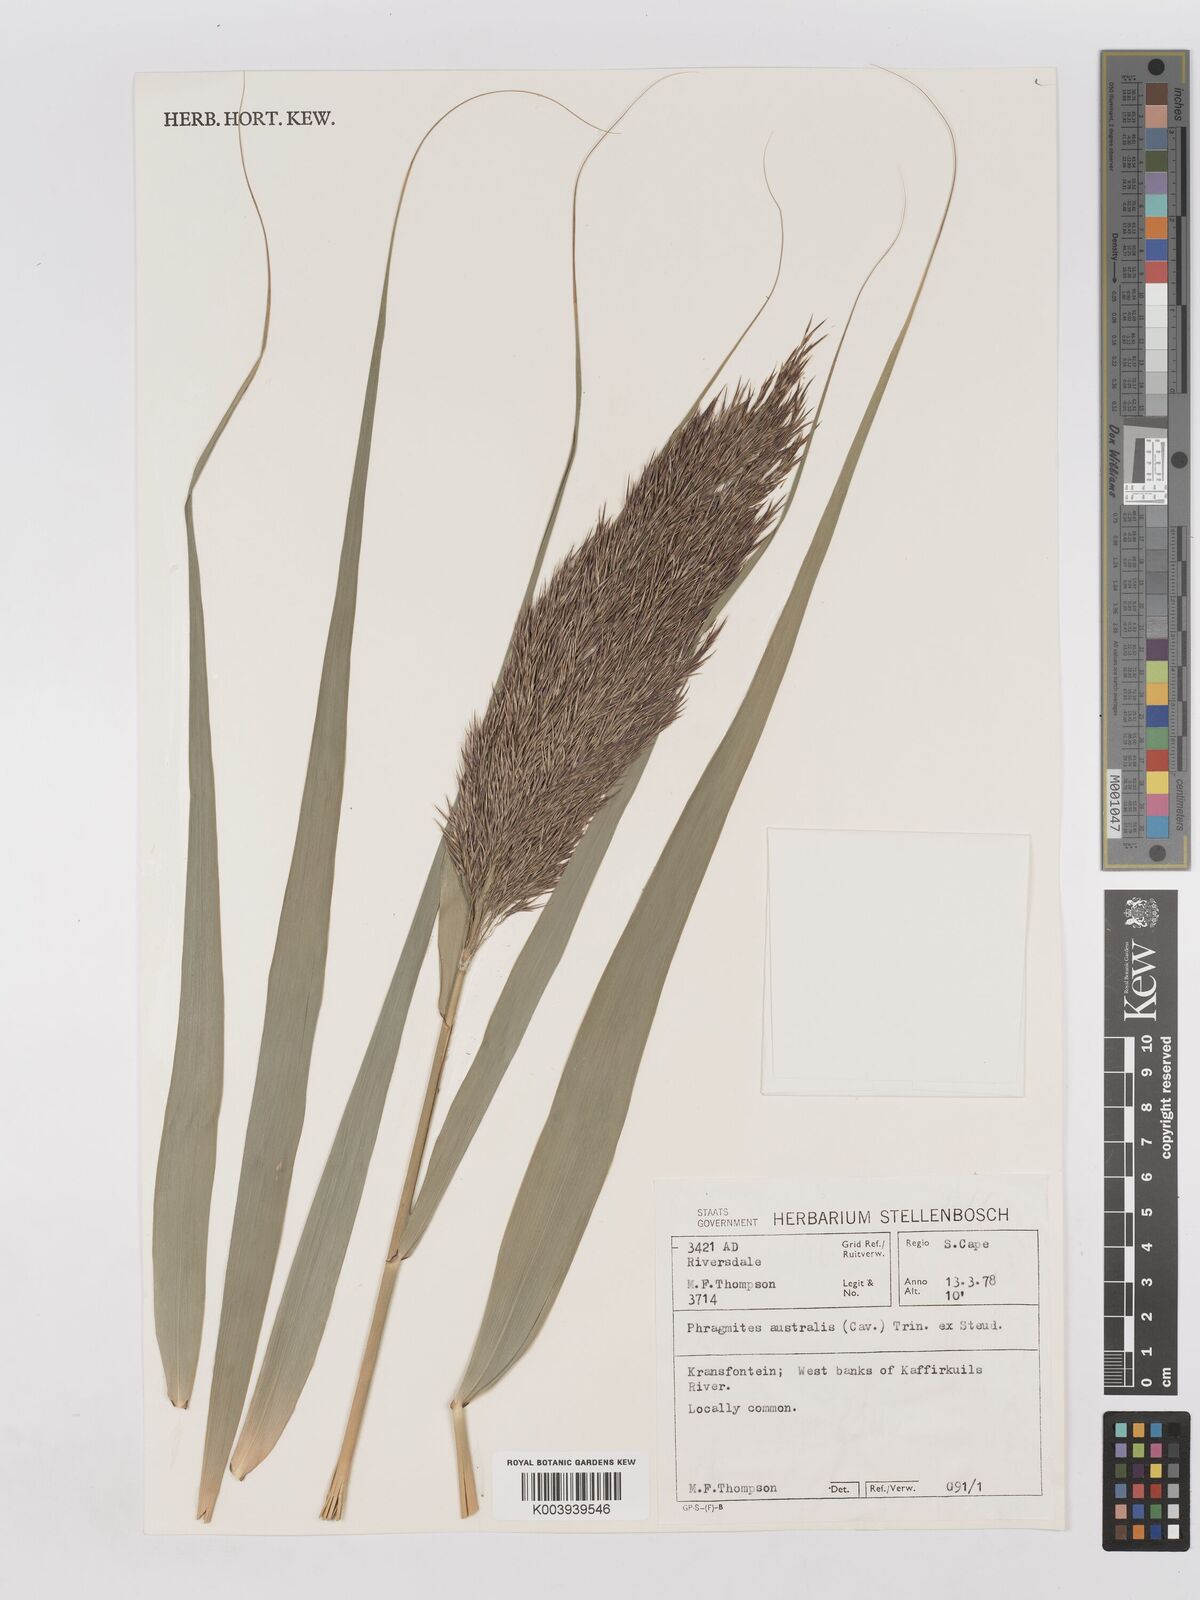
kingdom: Plantae
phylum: Tracheophyta
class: Liliopsida
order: Poales
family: Poaceae
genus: Phragmites
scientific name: Phragmites australis
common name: Common reed
